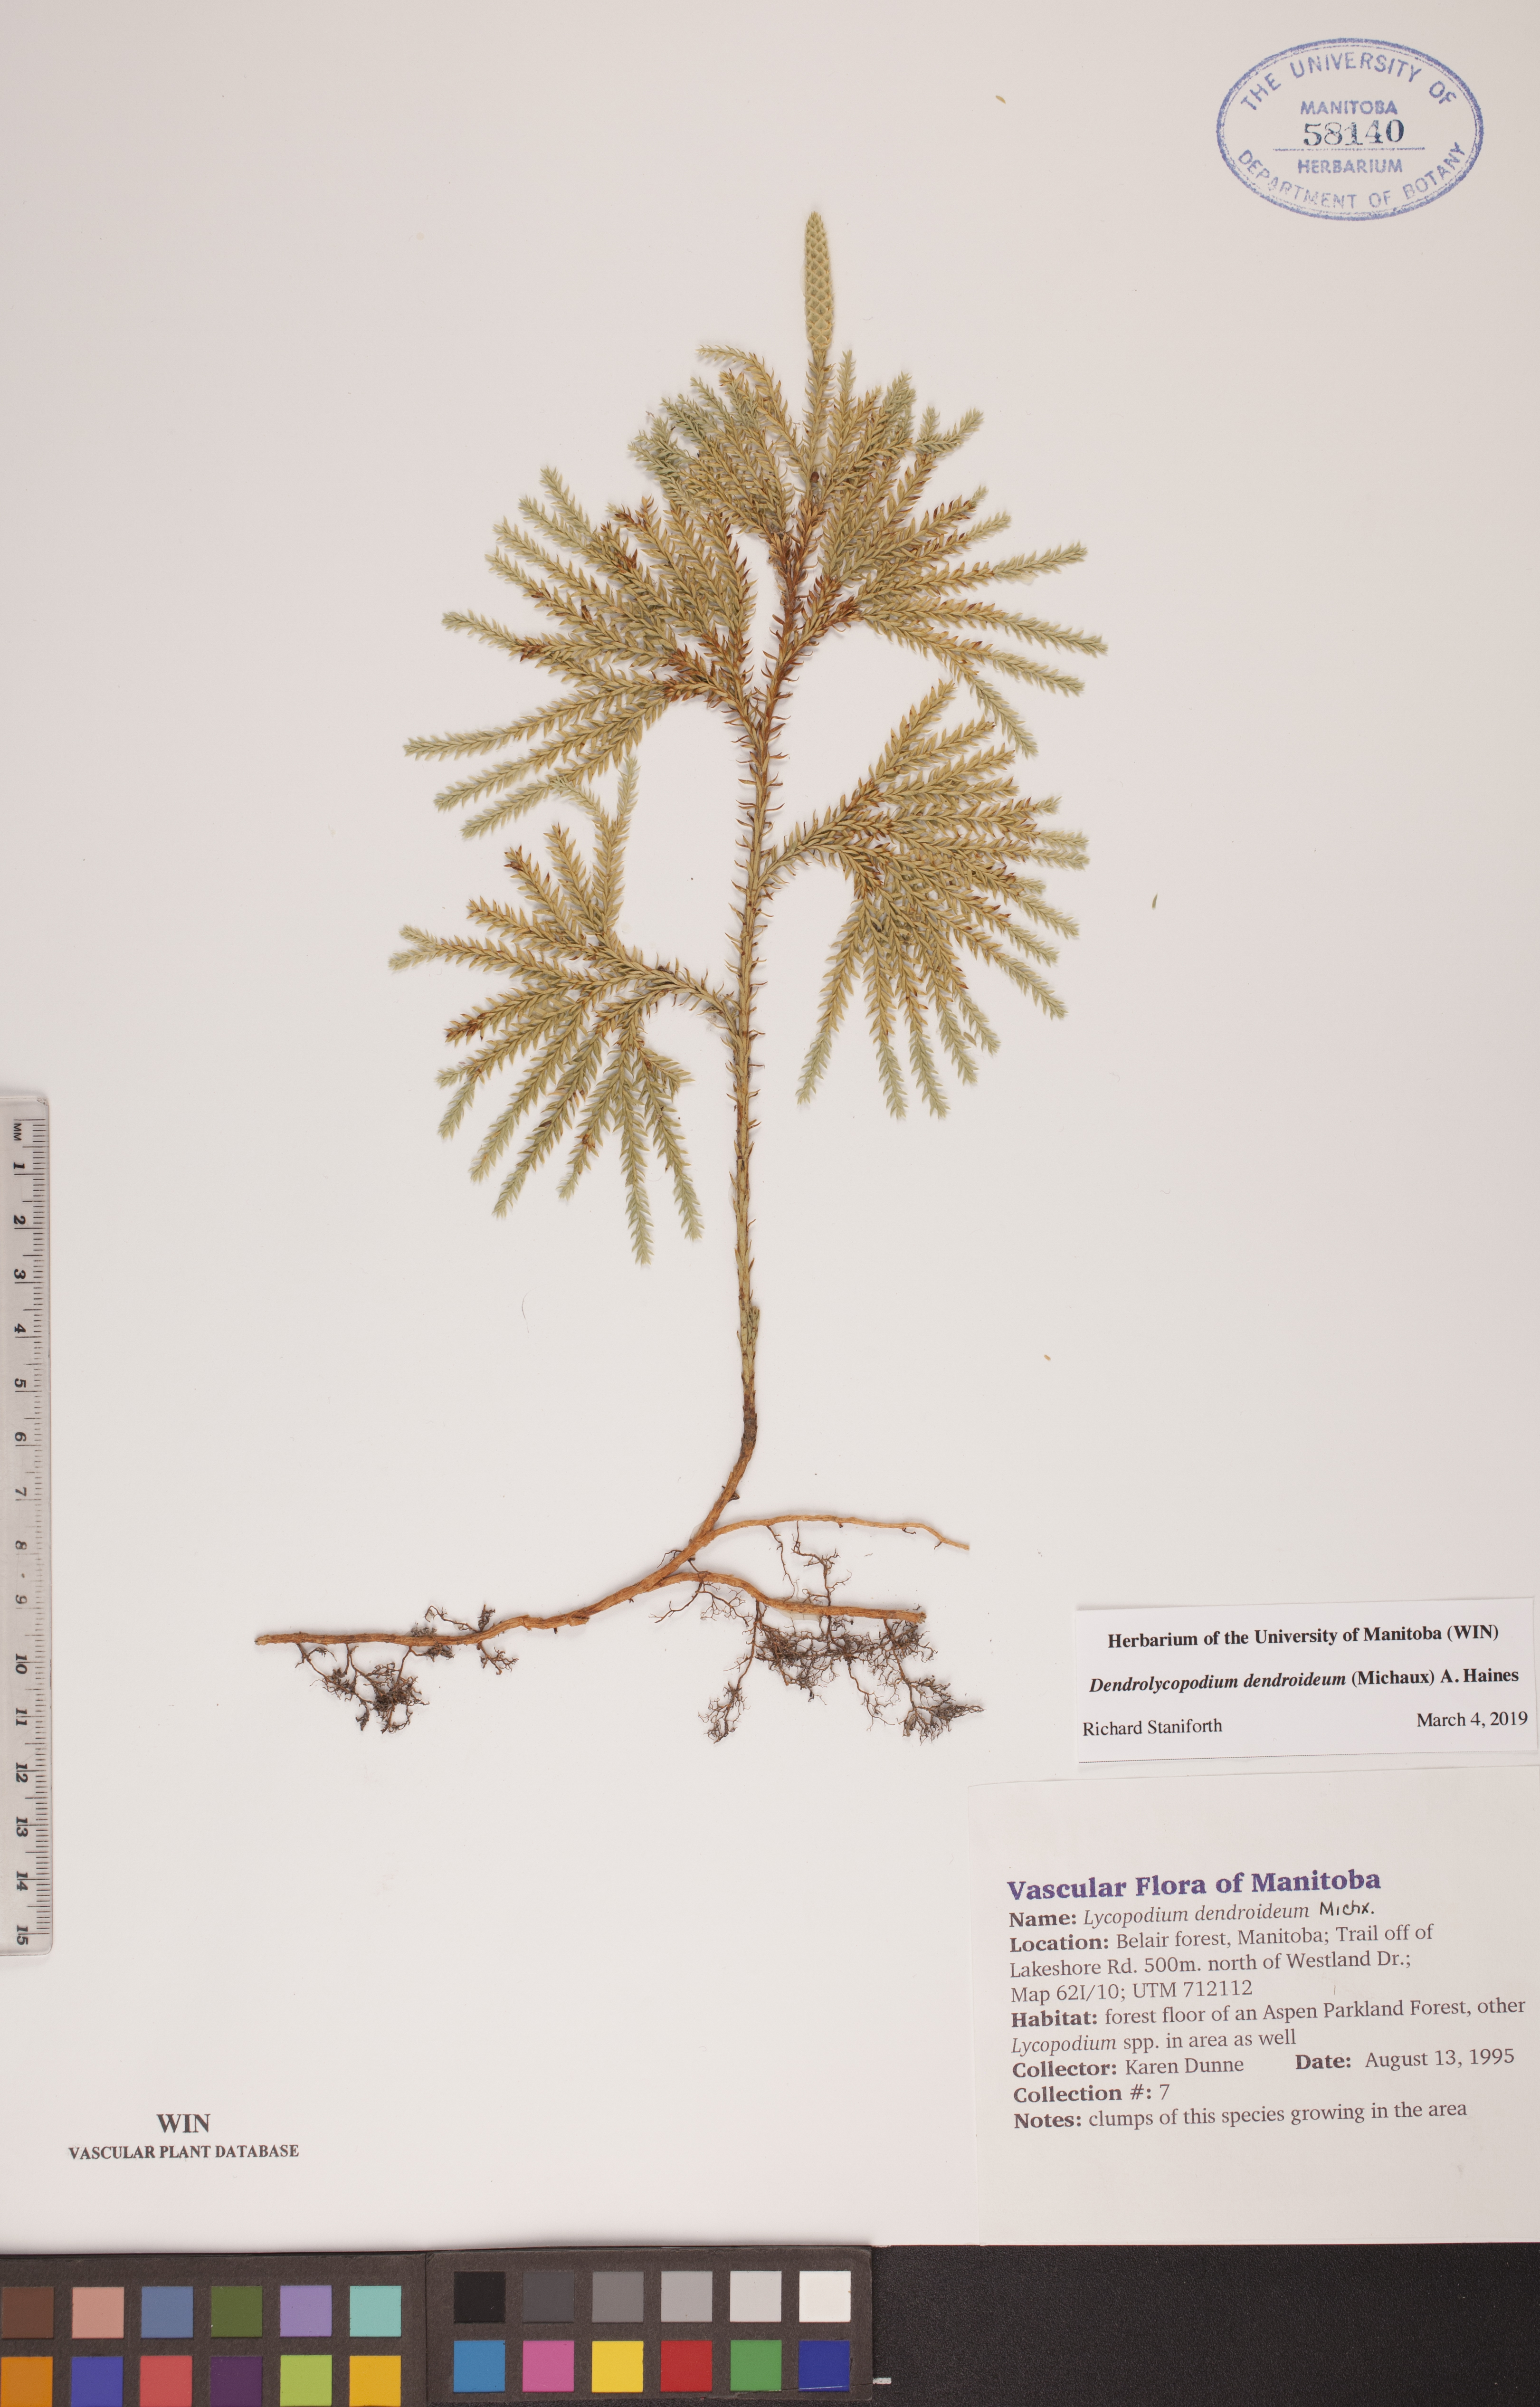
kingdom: Plantae
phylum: Tracheophyta
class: Lycopodiopsida
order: Lycopodiales
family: Lycopodiaceae
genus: Dendrolycopodium
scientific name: Dendrolycopodium dendroideum
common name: Northern tree-clubmoss
